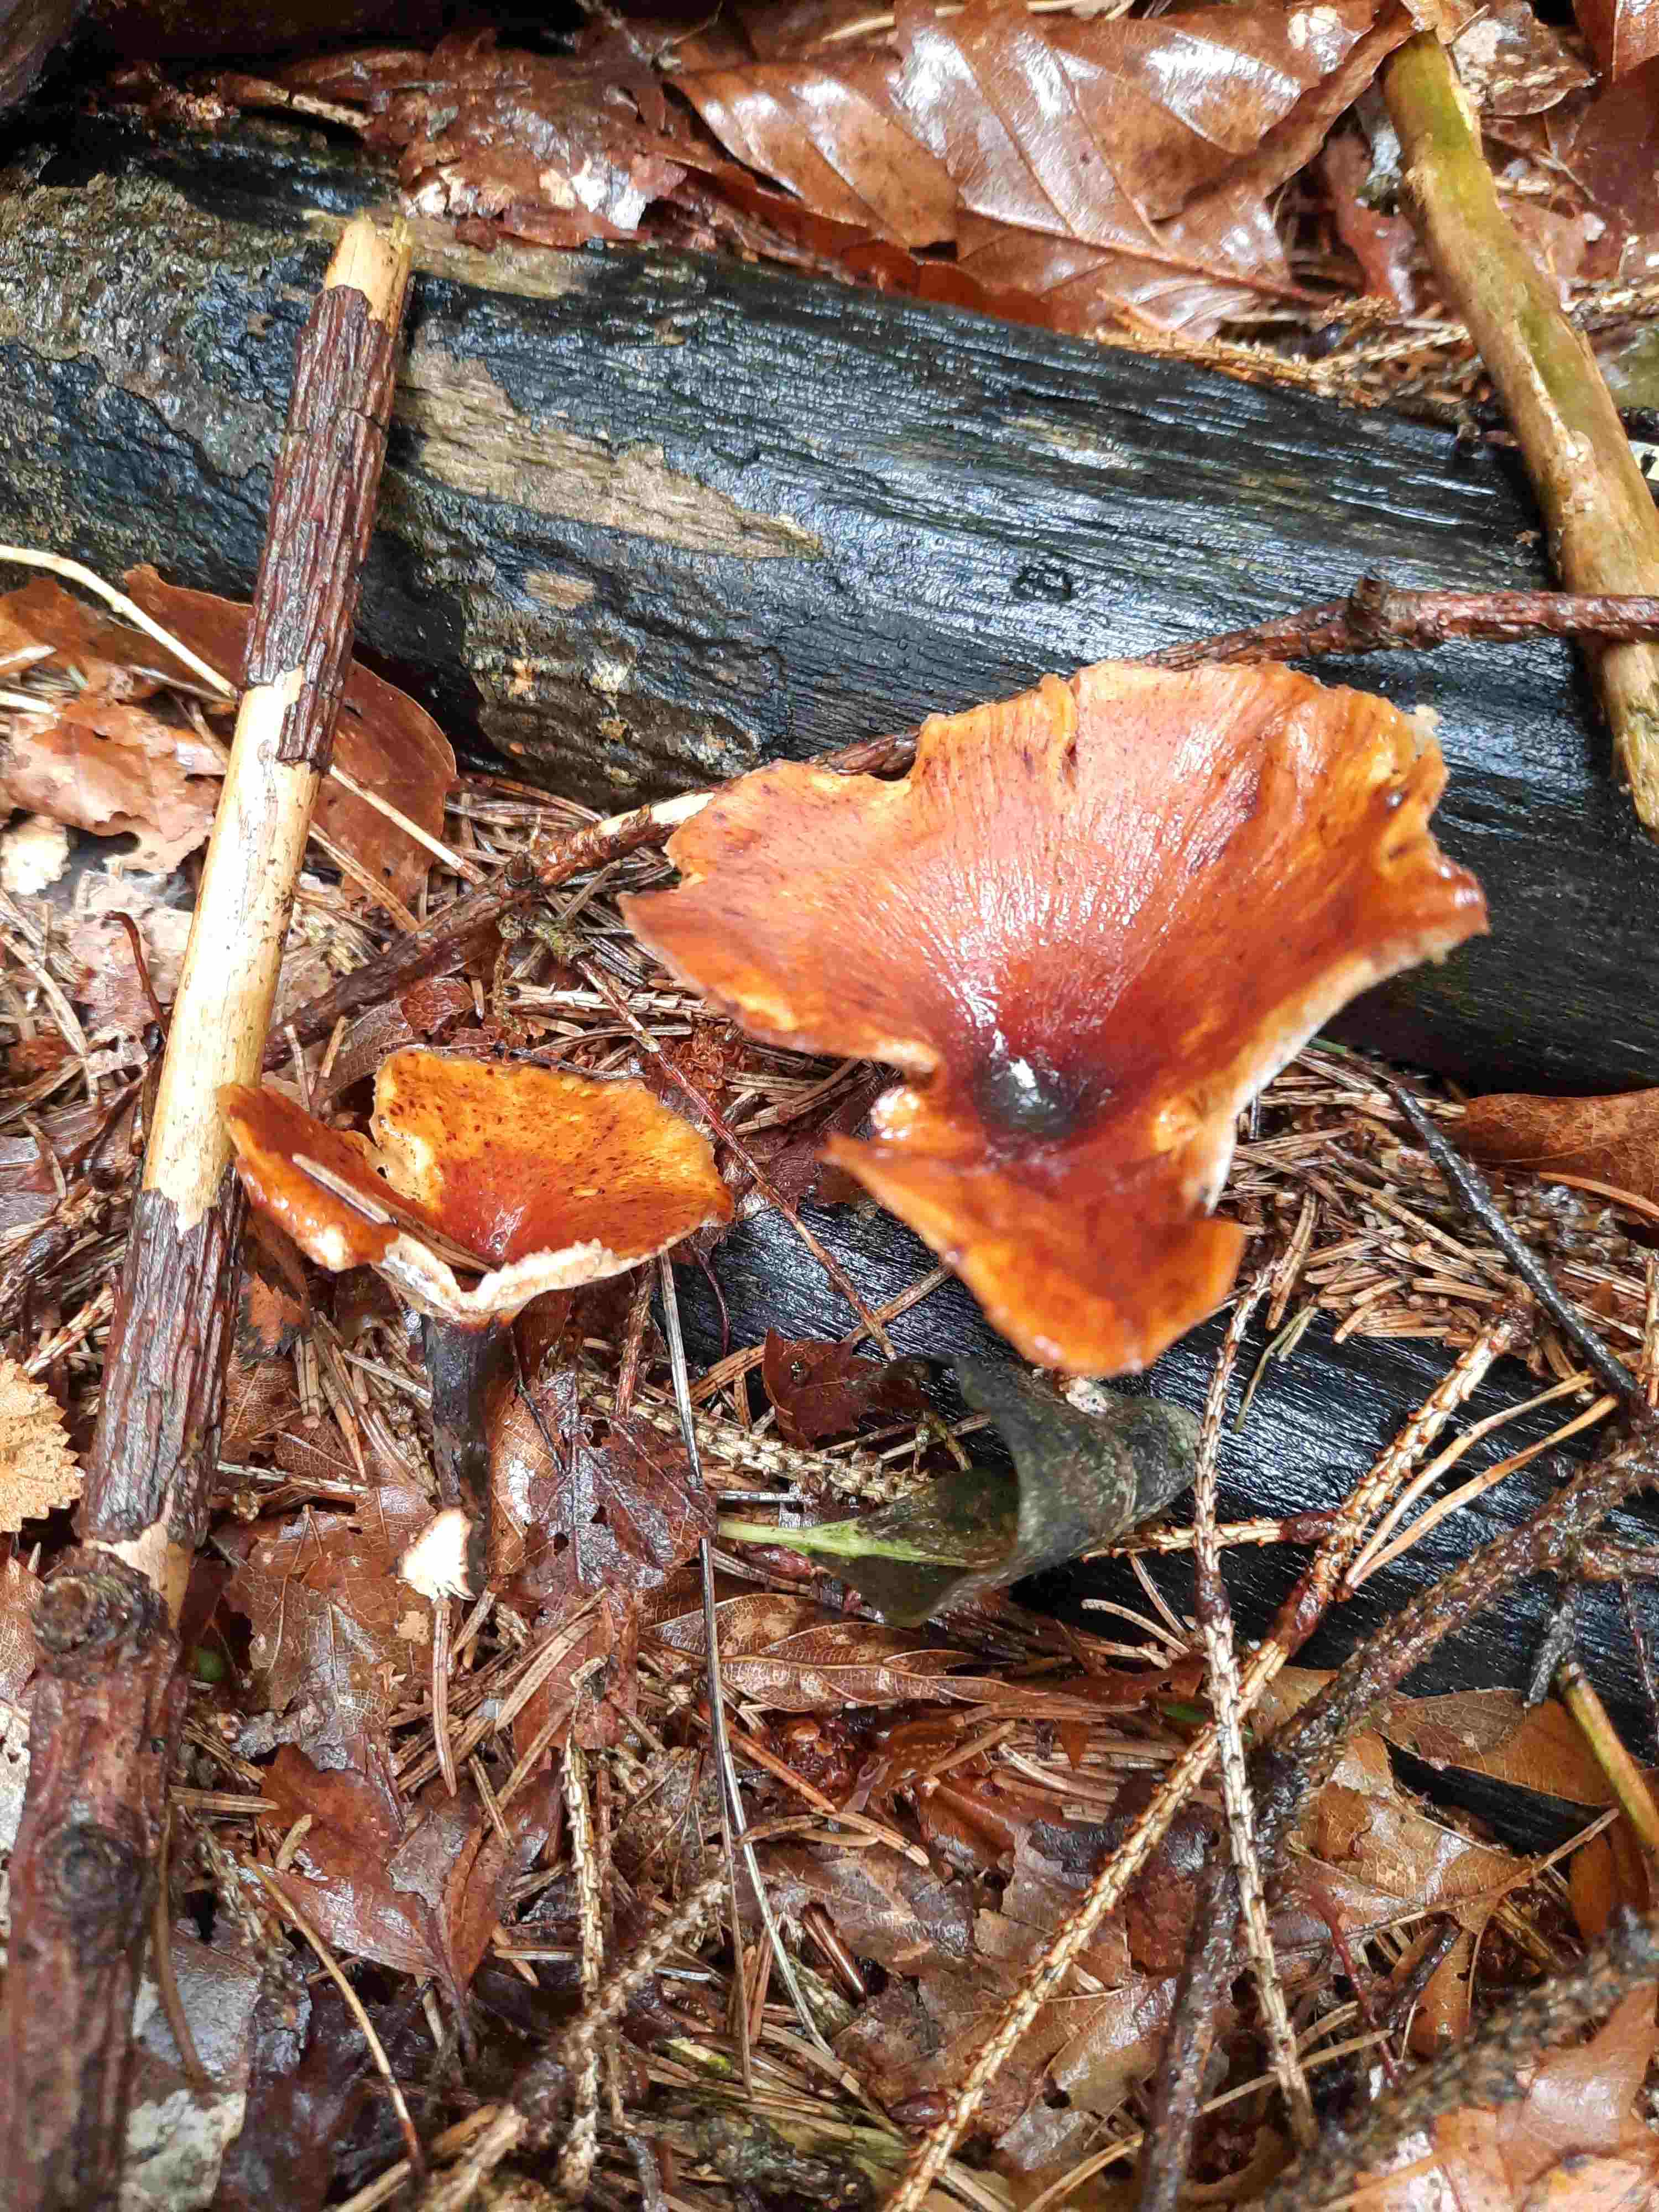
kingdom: Fungi
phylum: Basidiomycota
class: Agaricomycetes
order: Polyporales
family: Polyporaceae
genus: Picipes
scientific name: Picipes badius
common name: kastaniebrun stilkporesvamp
